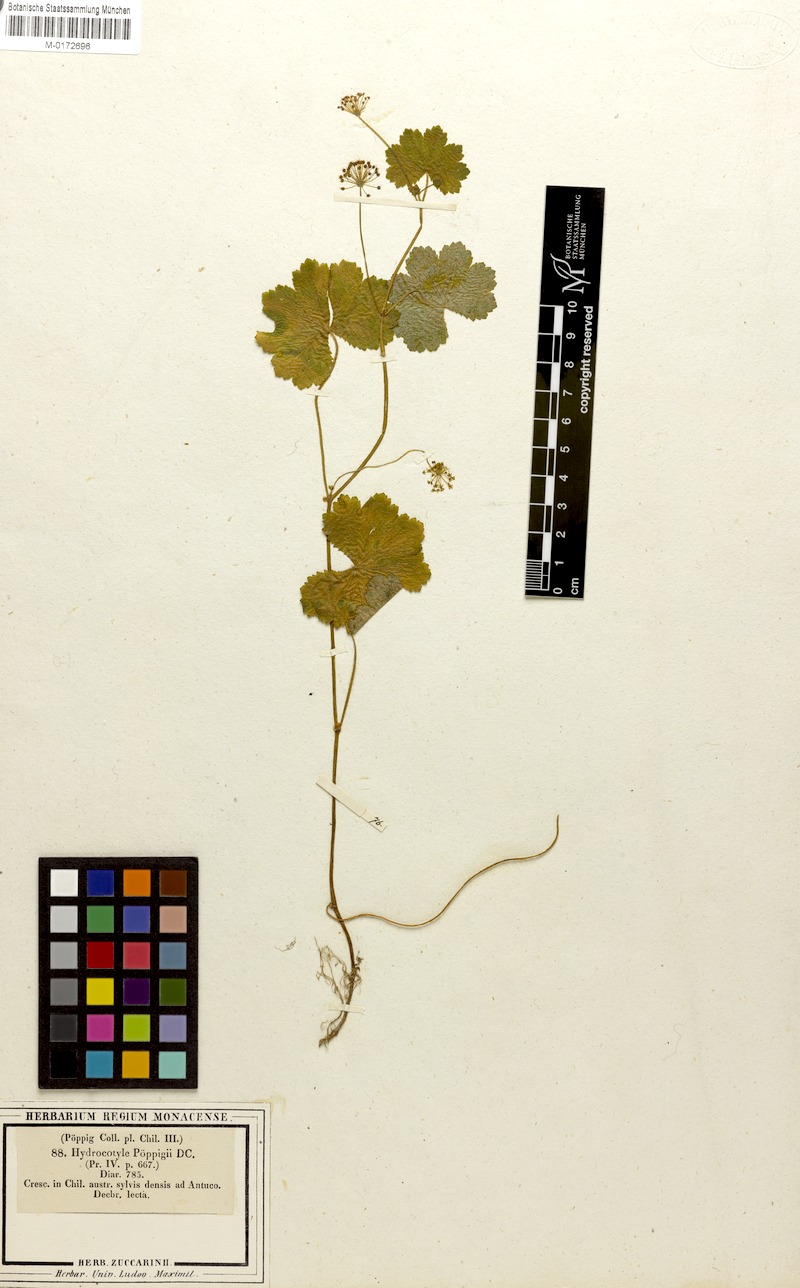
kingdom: Plantae
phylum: Tracheophyta
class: Magnoliopsida
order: Apiales
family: Araliaceae
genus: Hydrocotyle
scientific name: Hydrocotyle poeppigii
